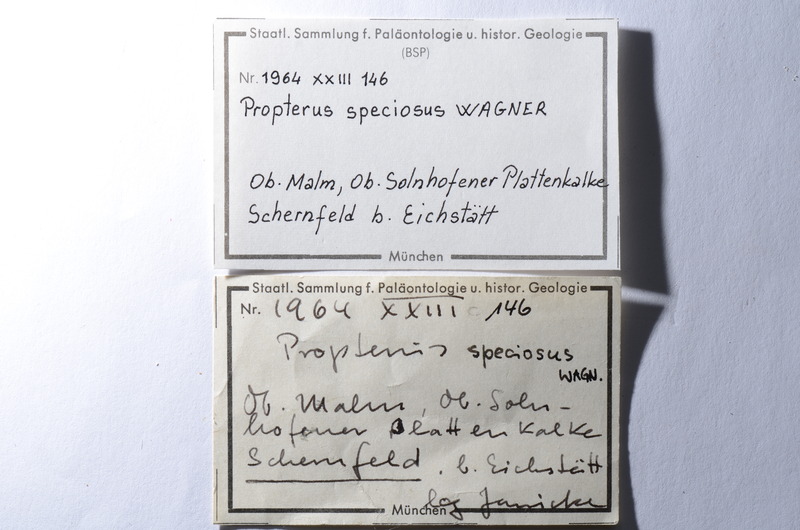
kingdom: Animalia
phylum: Chordata
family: Macrosemiidae
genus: Propterus
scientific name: Propterus microstomus
